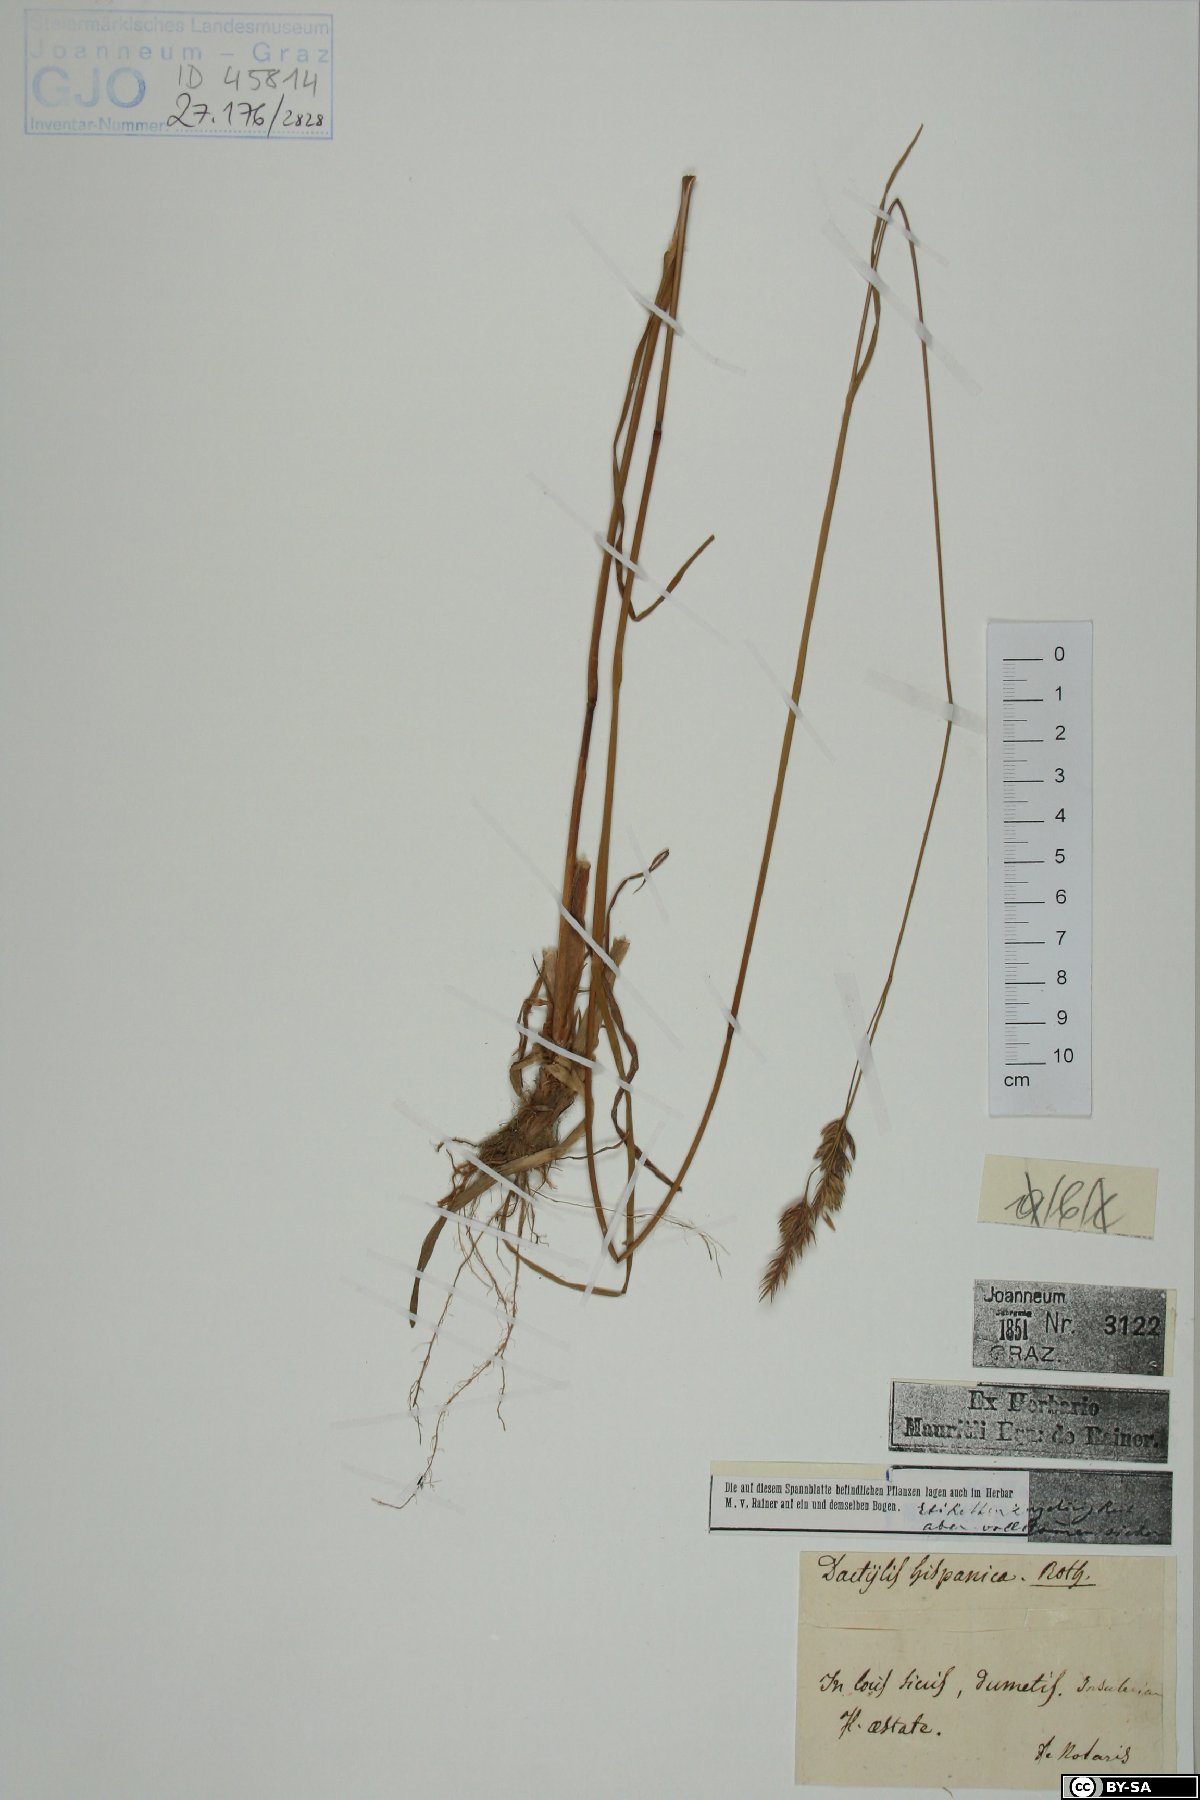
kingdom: Plantae
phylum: Tracheophyta
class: Liliopsida
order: Poales
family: Poaceae
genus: Dactylis
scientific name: Dactylis glomerata
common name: Orchardgrass
